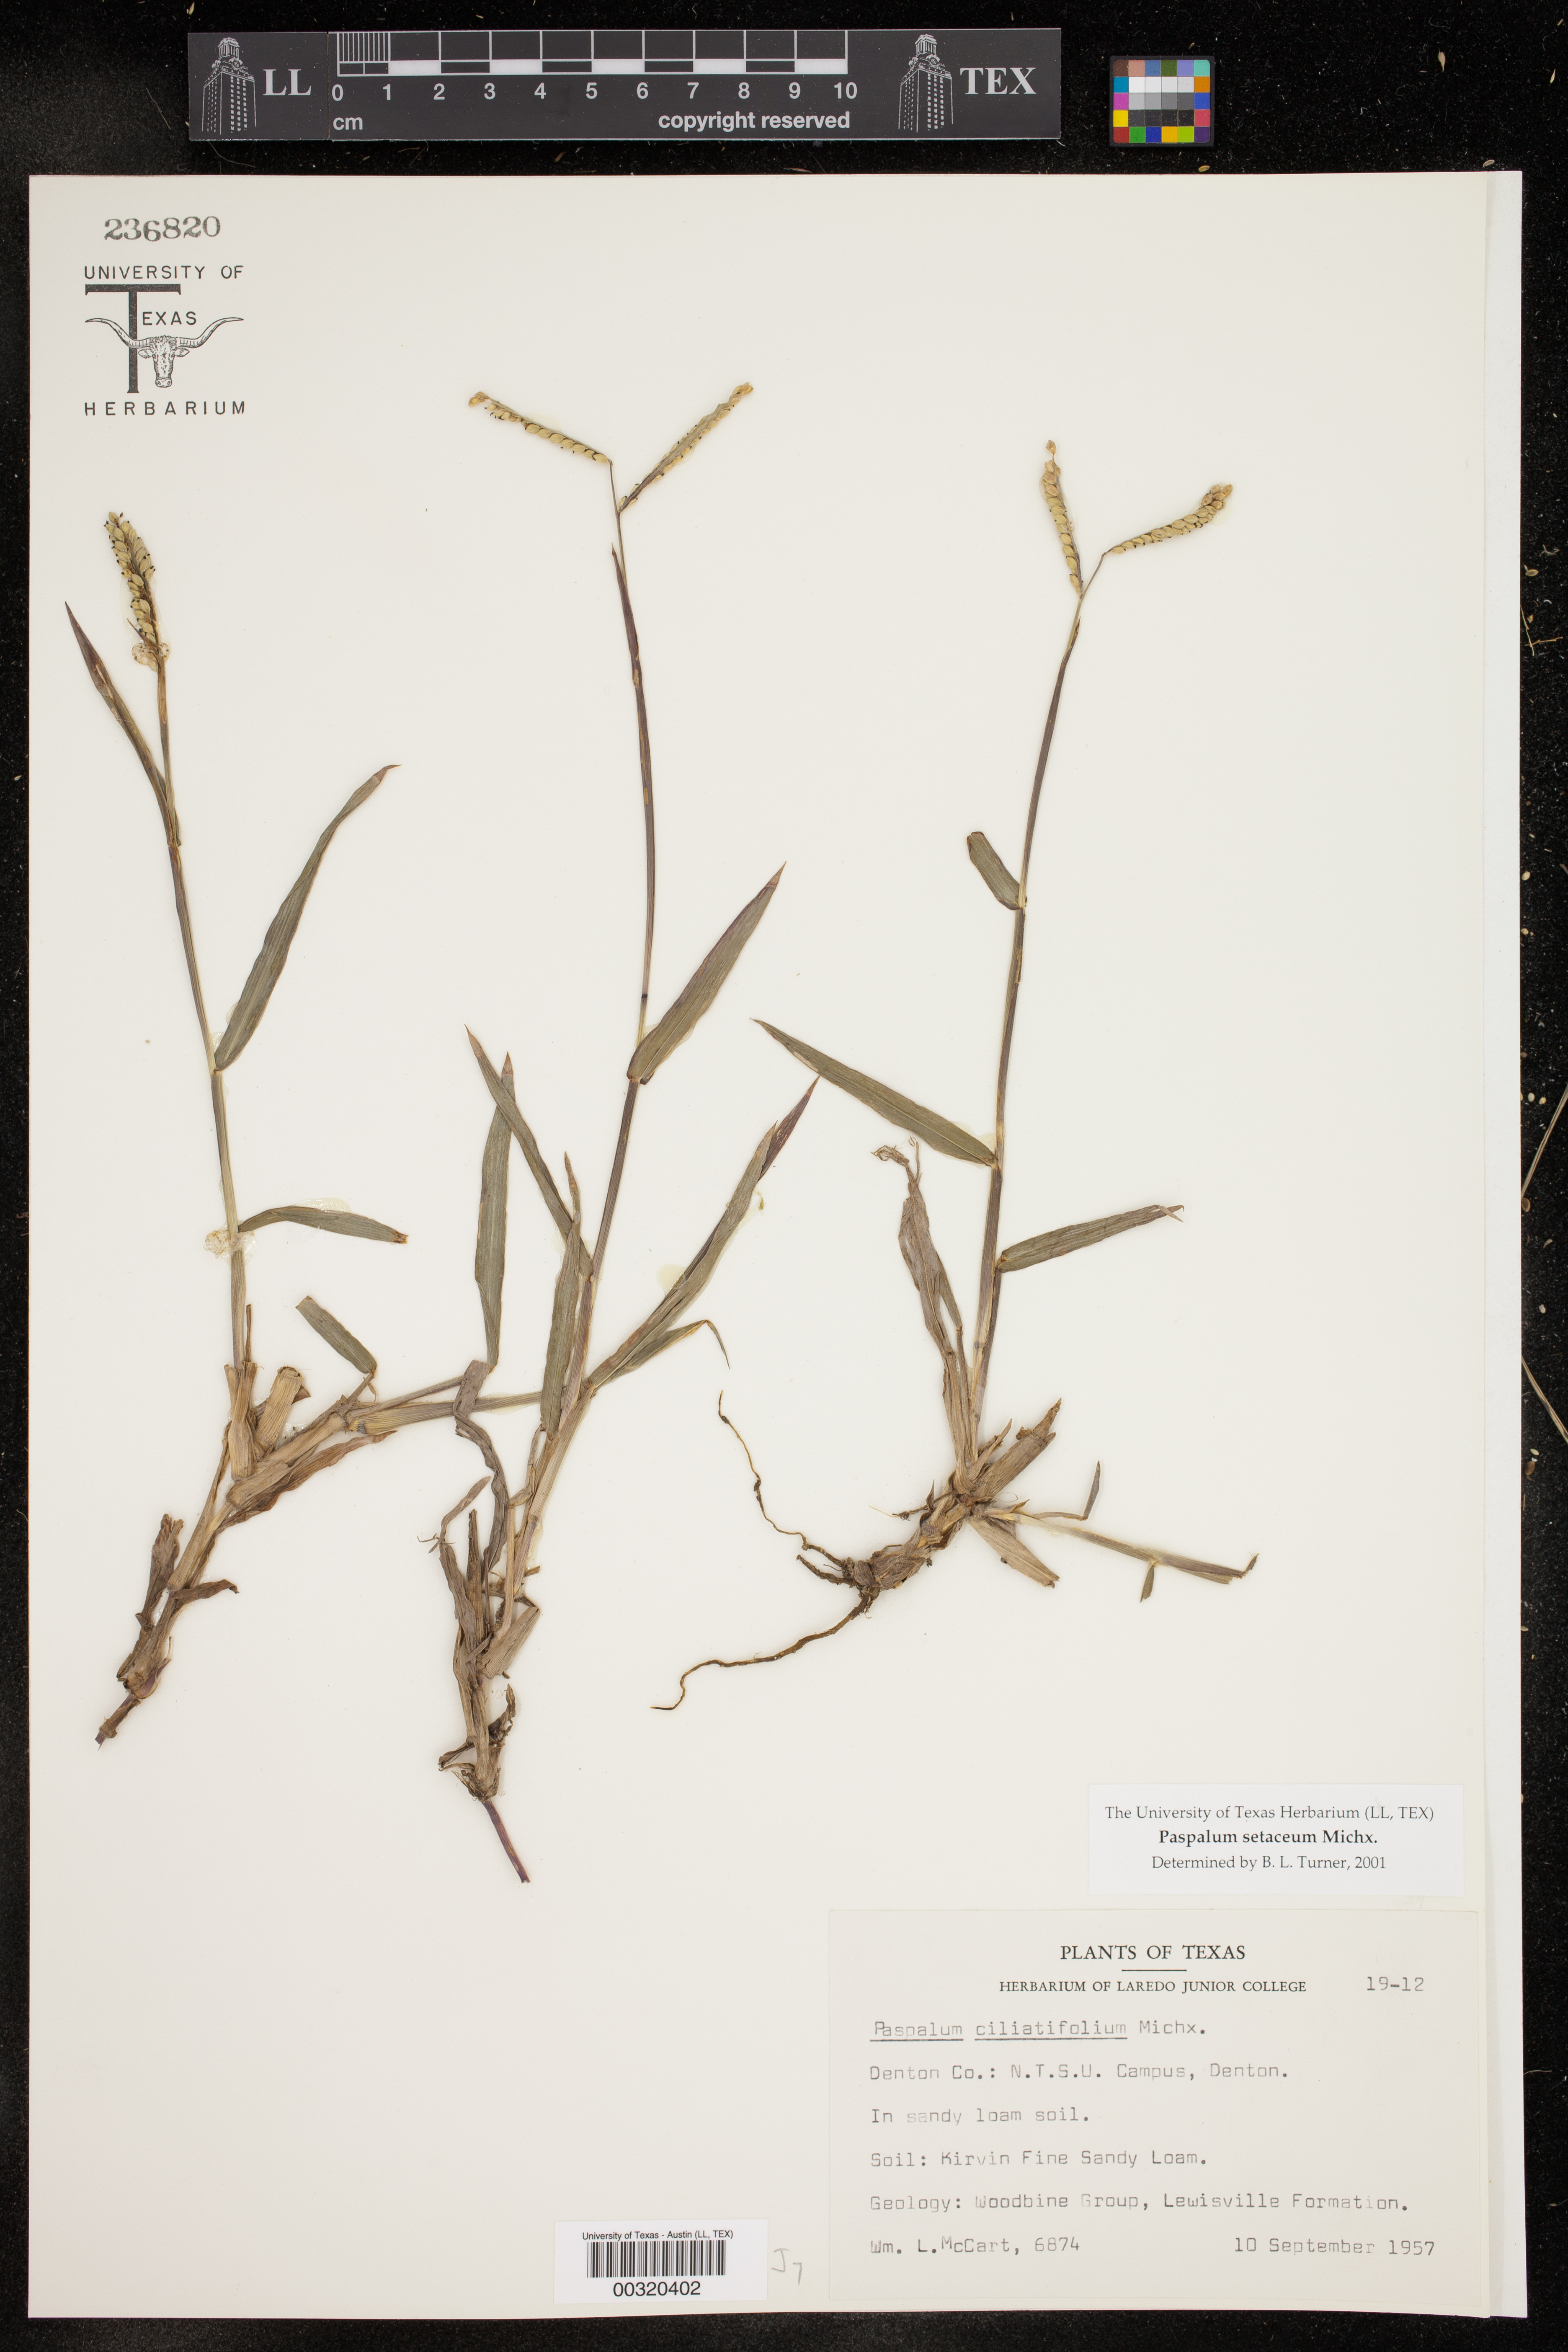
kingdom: Plantae
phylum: Tracheophyta
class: Liliopsida
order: Poales
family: Poaceae
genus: Paspalum
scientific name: Paspalum setaceum
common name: Slender paspalum
